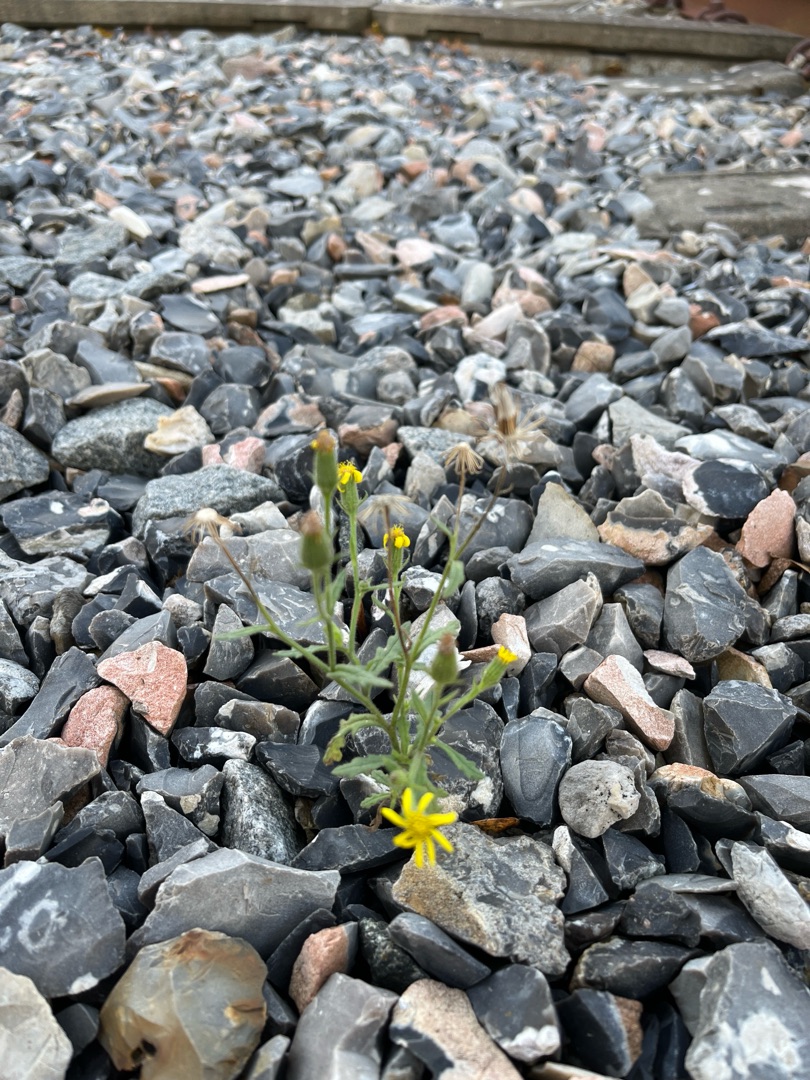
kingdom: Plantae
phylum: Tracheophyta
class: Magnoliopsida
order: Asterales
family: Asteraceae
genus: Senecio
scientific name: Senecio viscosus
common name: Klæbrig brandbæger
